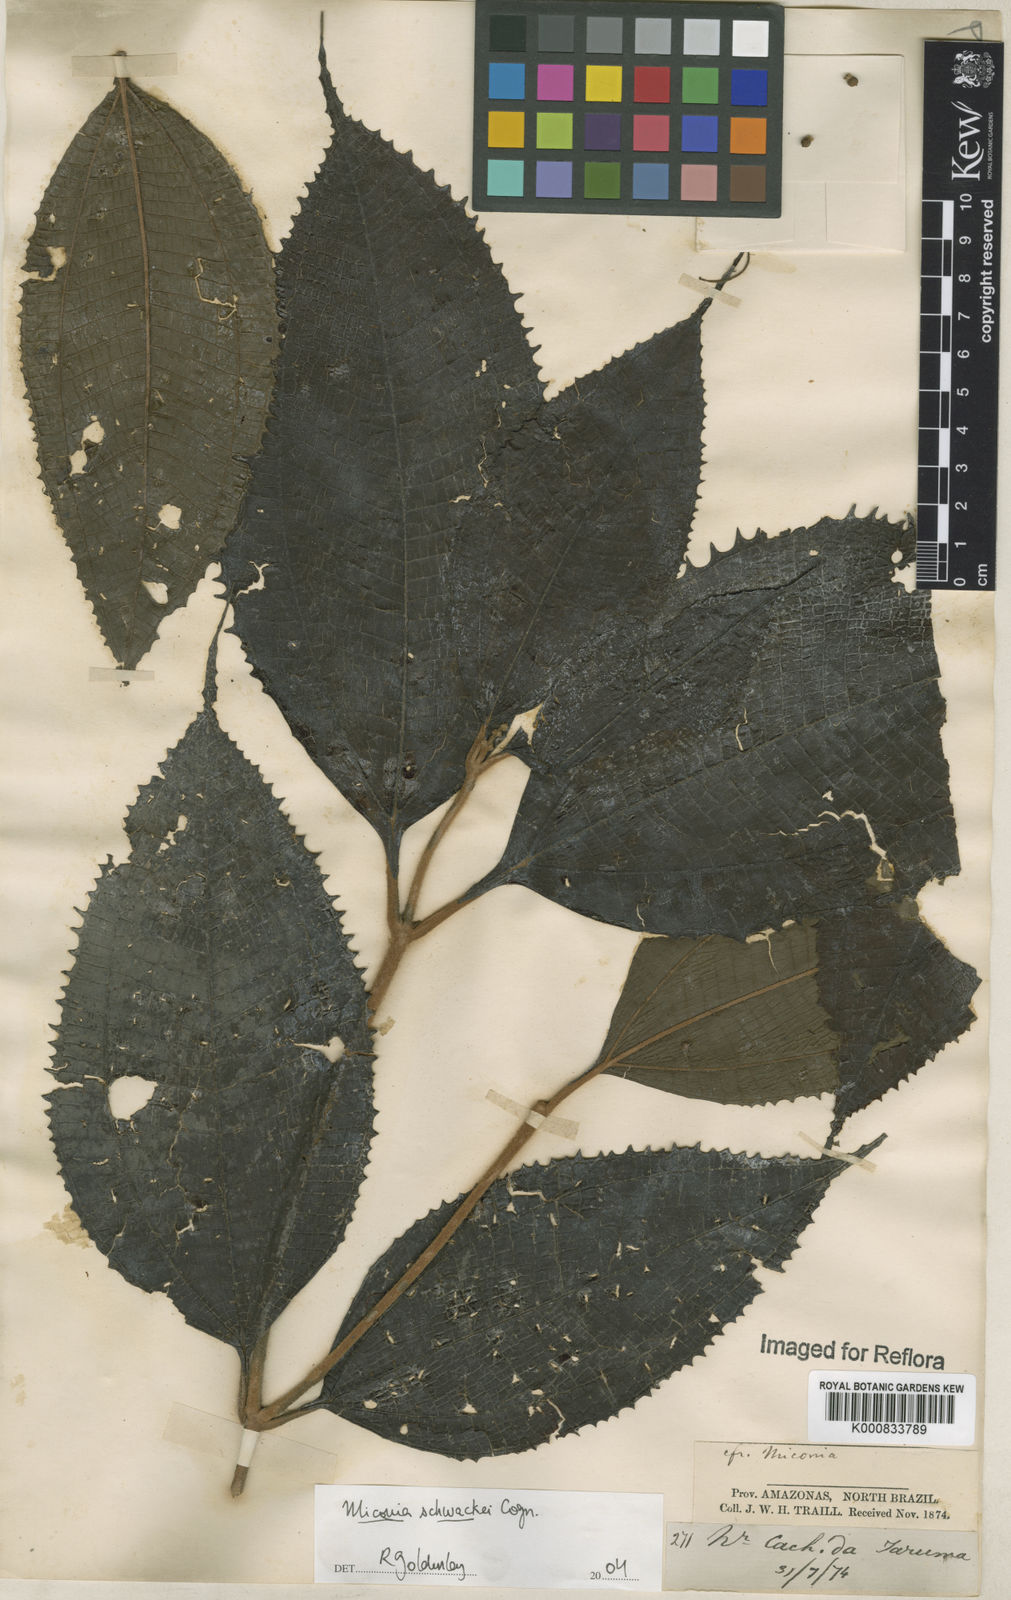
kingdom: Plantae
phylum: Tracheophyta
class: Magnoliopsida
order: Myrtales
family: Melastomataceae
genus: Miconia
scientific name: Miconia schwackei
